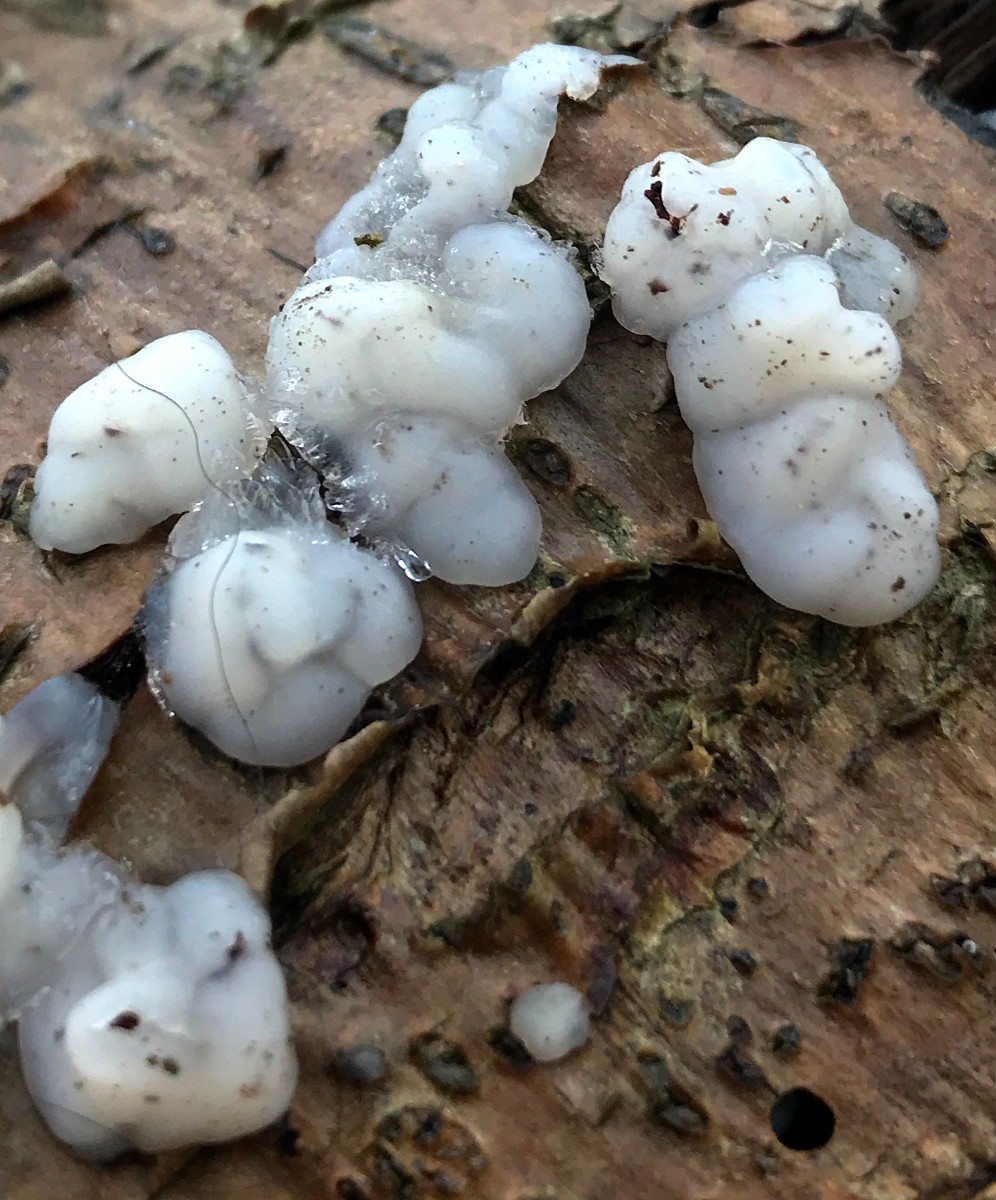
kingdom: Fungi
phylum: Basidiomycota
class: Agaricomycetes
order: Auriculariales
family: Auriculariaceae
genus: Exidia
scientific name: Exidia thuretiana
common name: hvidlig bævretop
